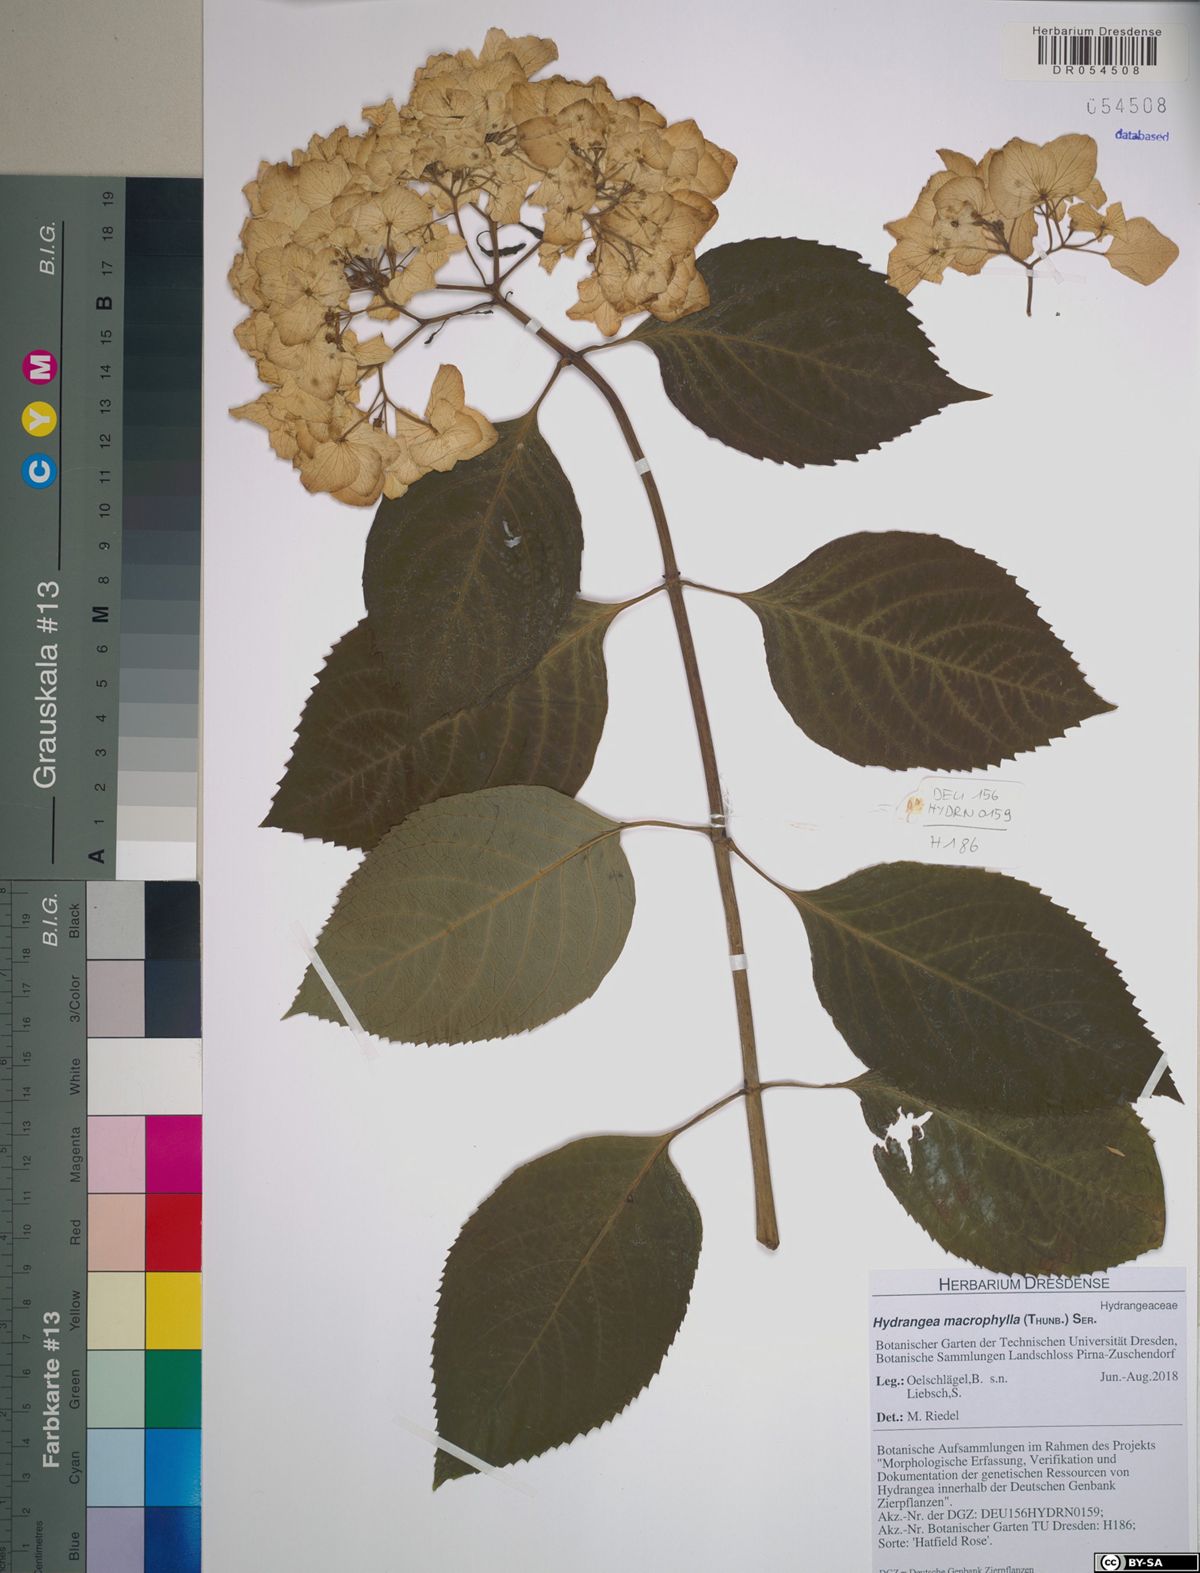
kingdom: Plantae
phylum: Tracheophyta
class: Magnoliopsida
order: Cornales
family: Hydrangeaceae
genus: Hydrangea
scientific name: Hydrangea macrophylla
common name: Hydrangea
